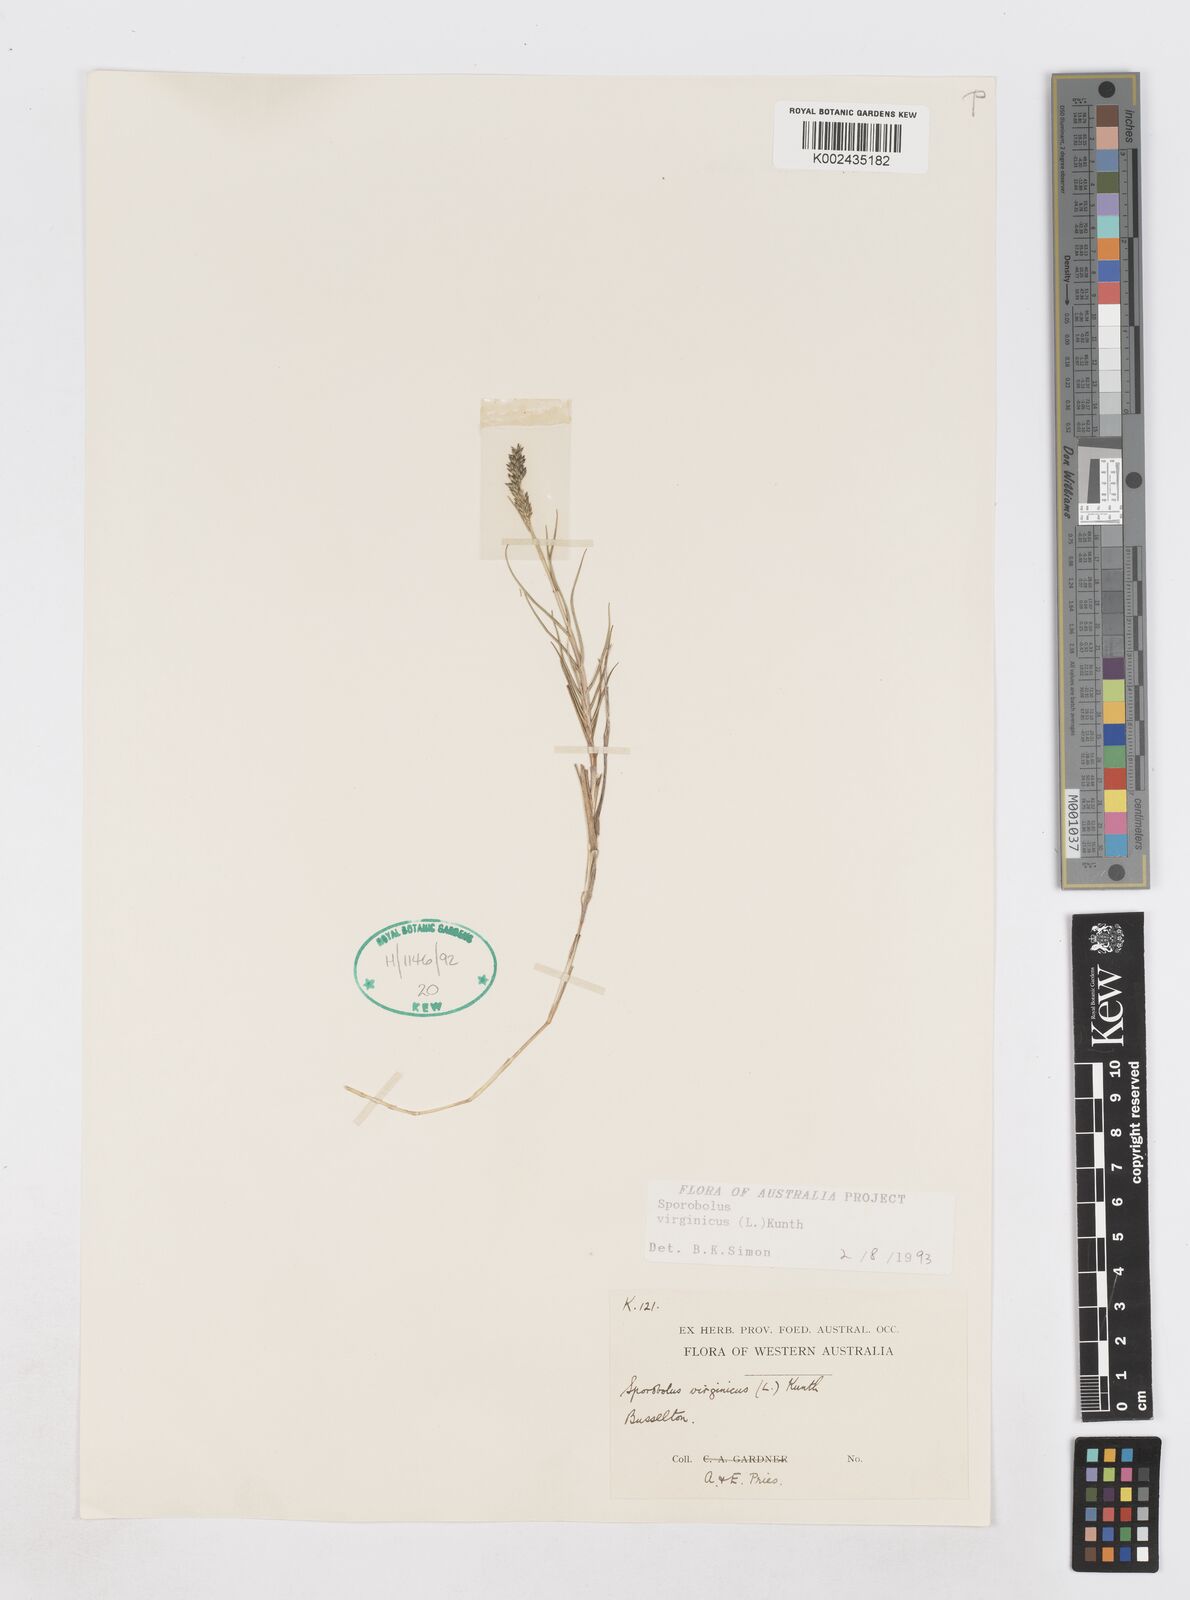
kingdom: Plantae
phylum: Tracheophyta
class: Liliopsida
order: Poales
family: Poaceae
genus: Sporobolus
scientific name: Sporobolus virginicus
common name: Beach dropseed
